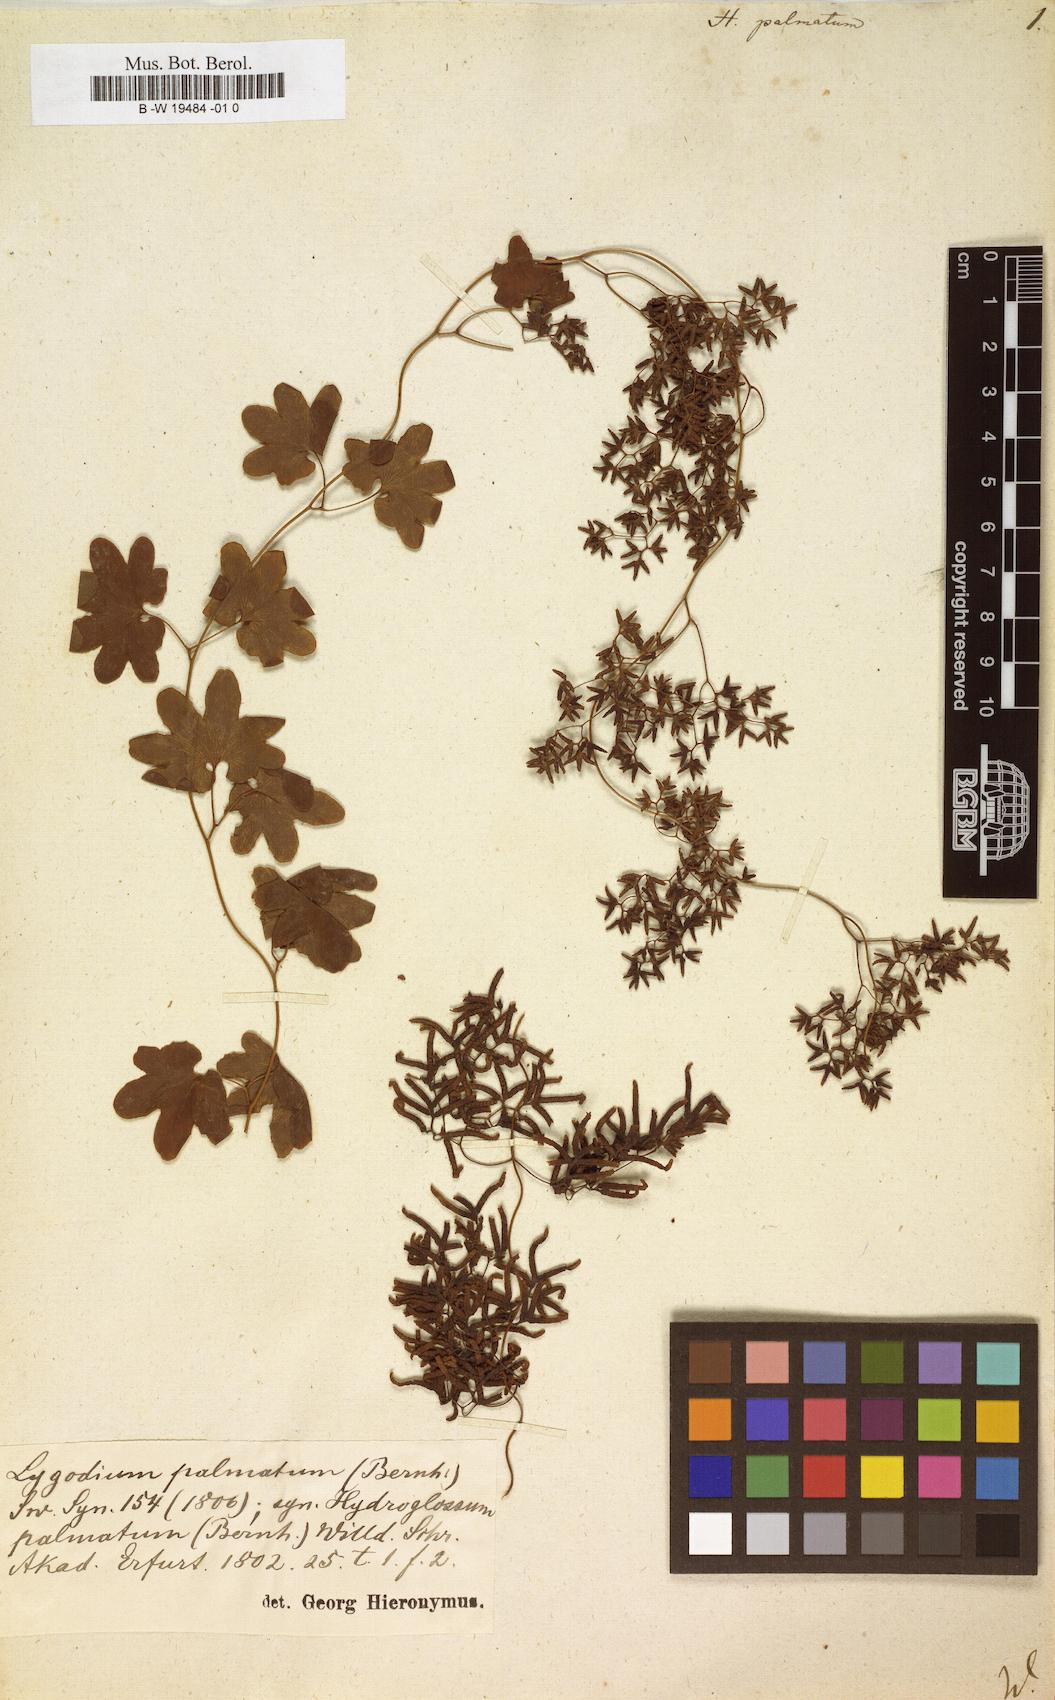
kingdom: Plantae
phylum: Tracheophyta
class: Polypodiopsida
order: Schizaeales
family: Lygodiaceae
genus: Lygodium
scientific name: Lygodium palmatum
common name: American climbing fern
